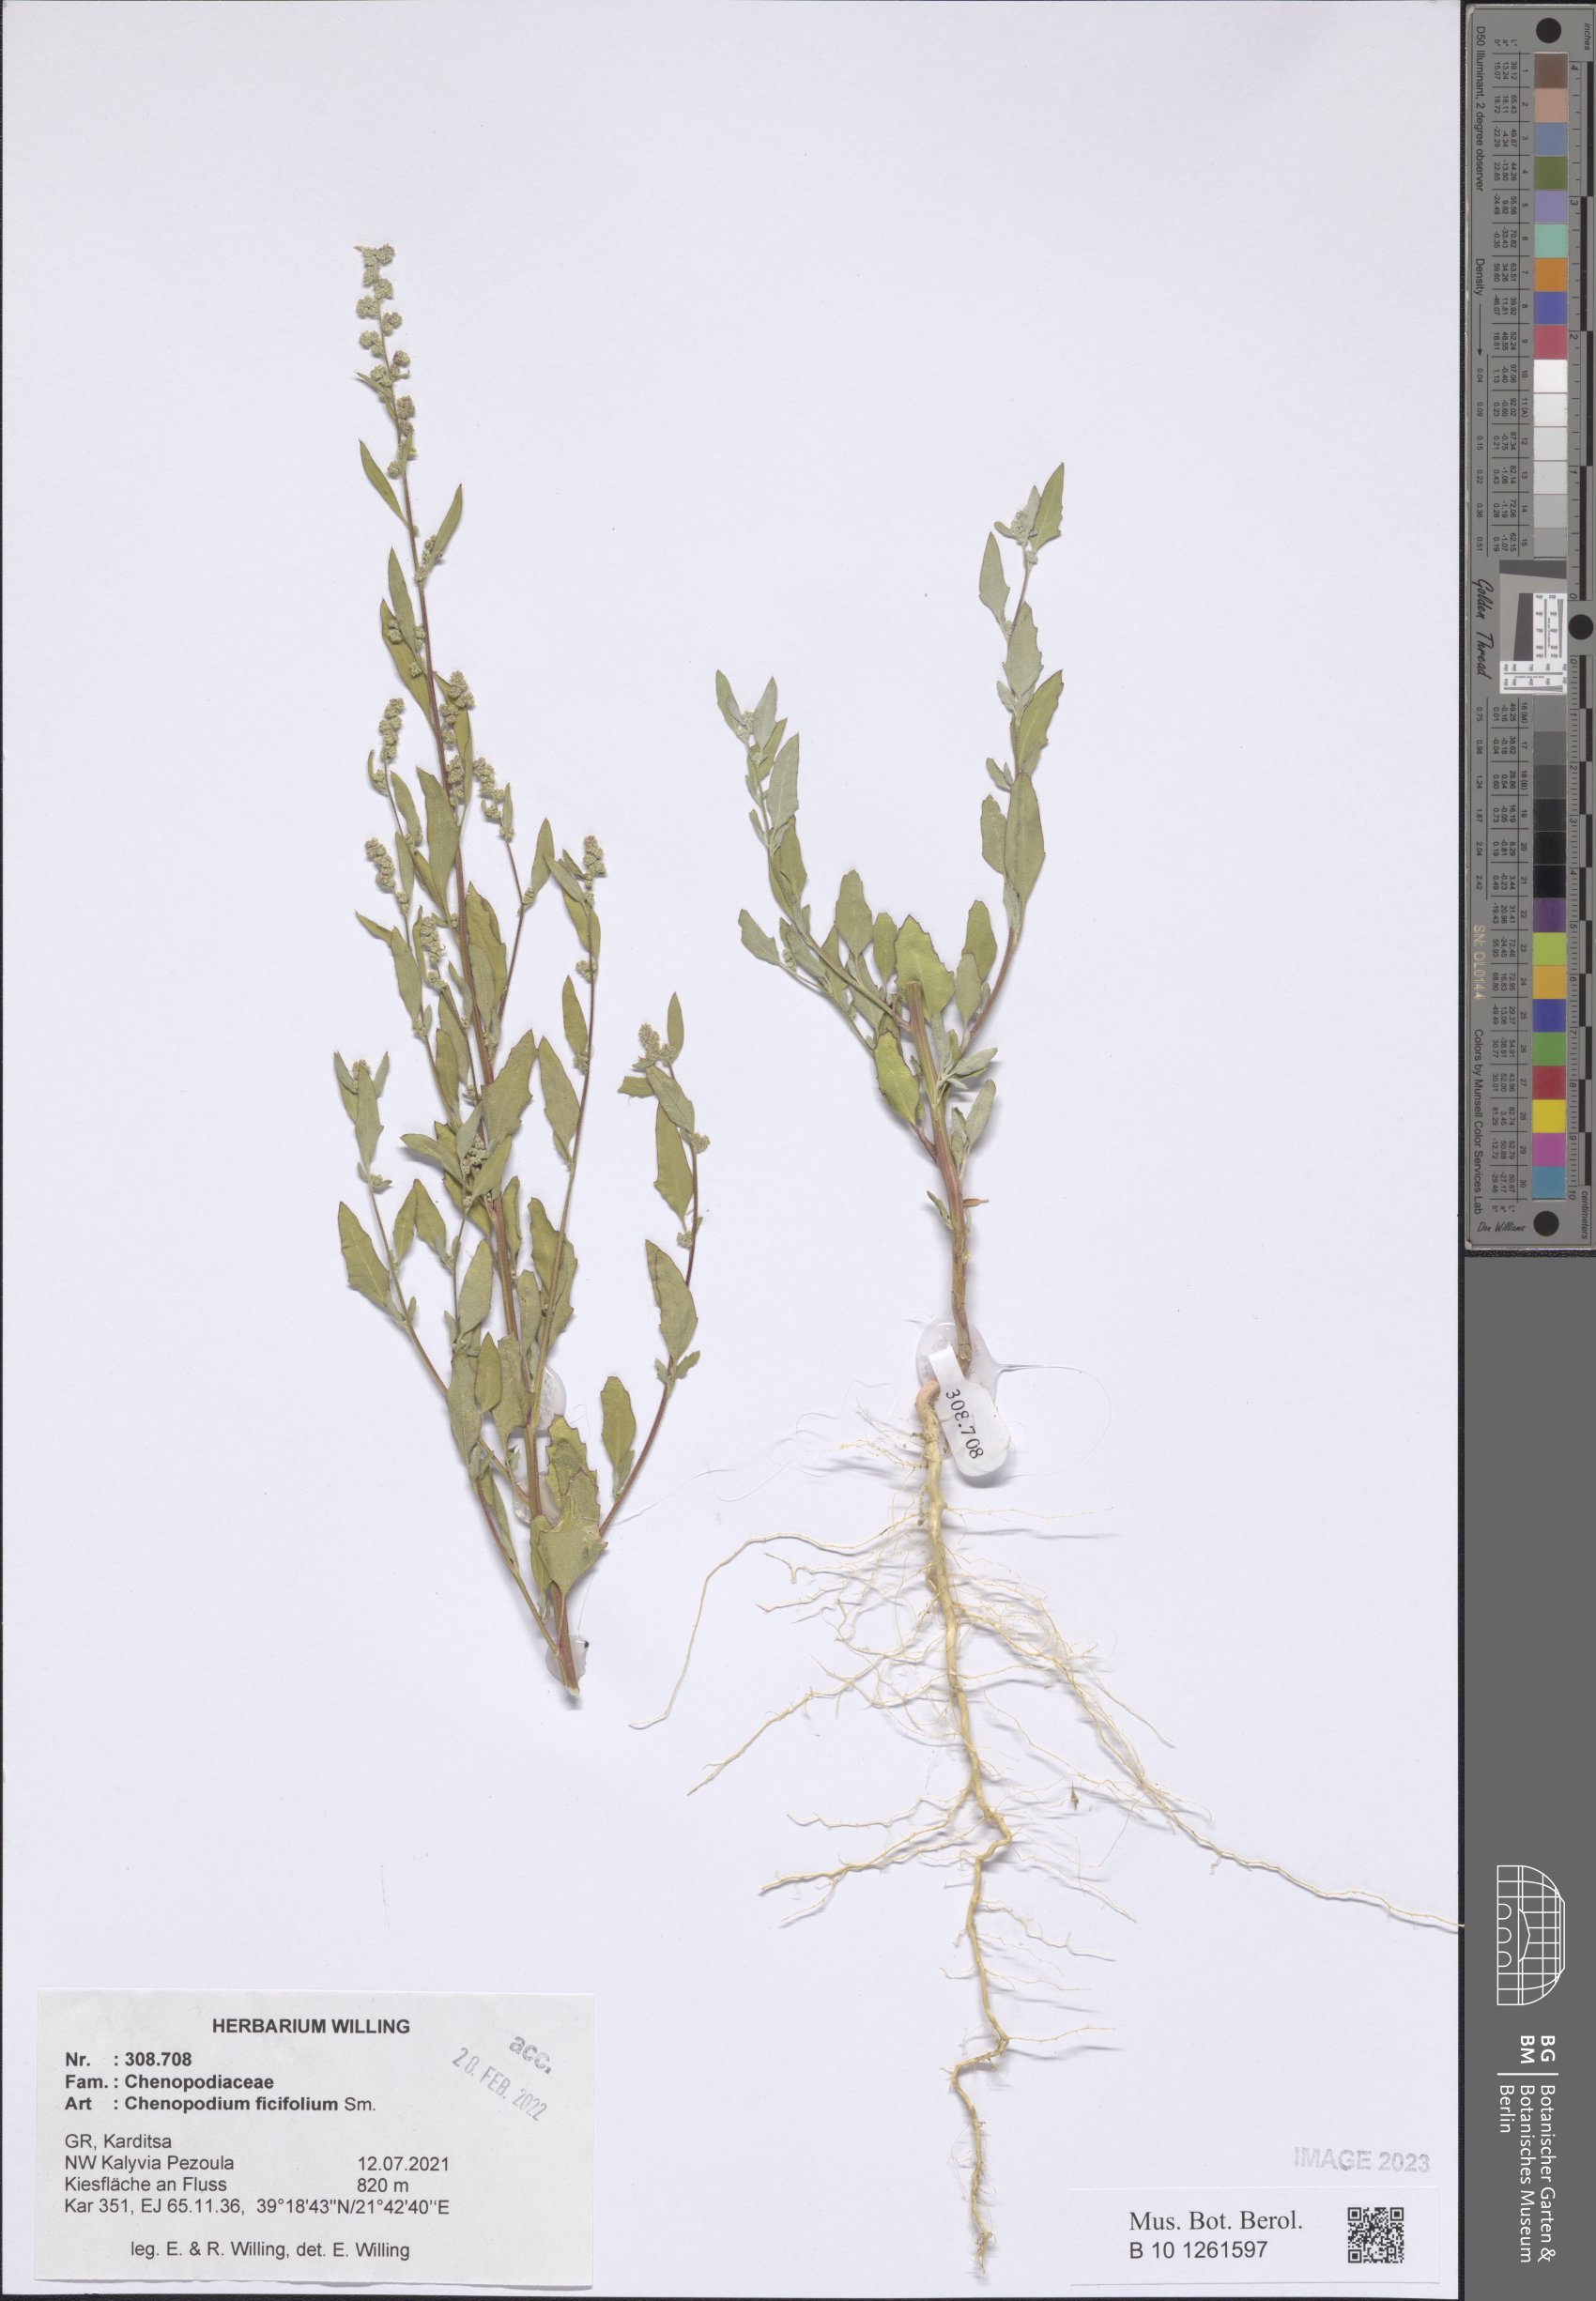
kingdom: Plantae
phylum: Tracheophyta
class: Magnoliopsida
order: Caryophyllales
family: Amaranthaceae
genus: Chenopodium
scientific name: Chenopodium ficifolium
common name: Fig-leaved goosefoot
